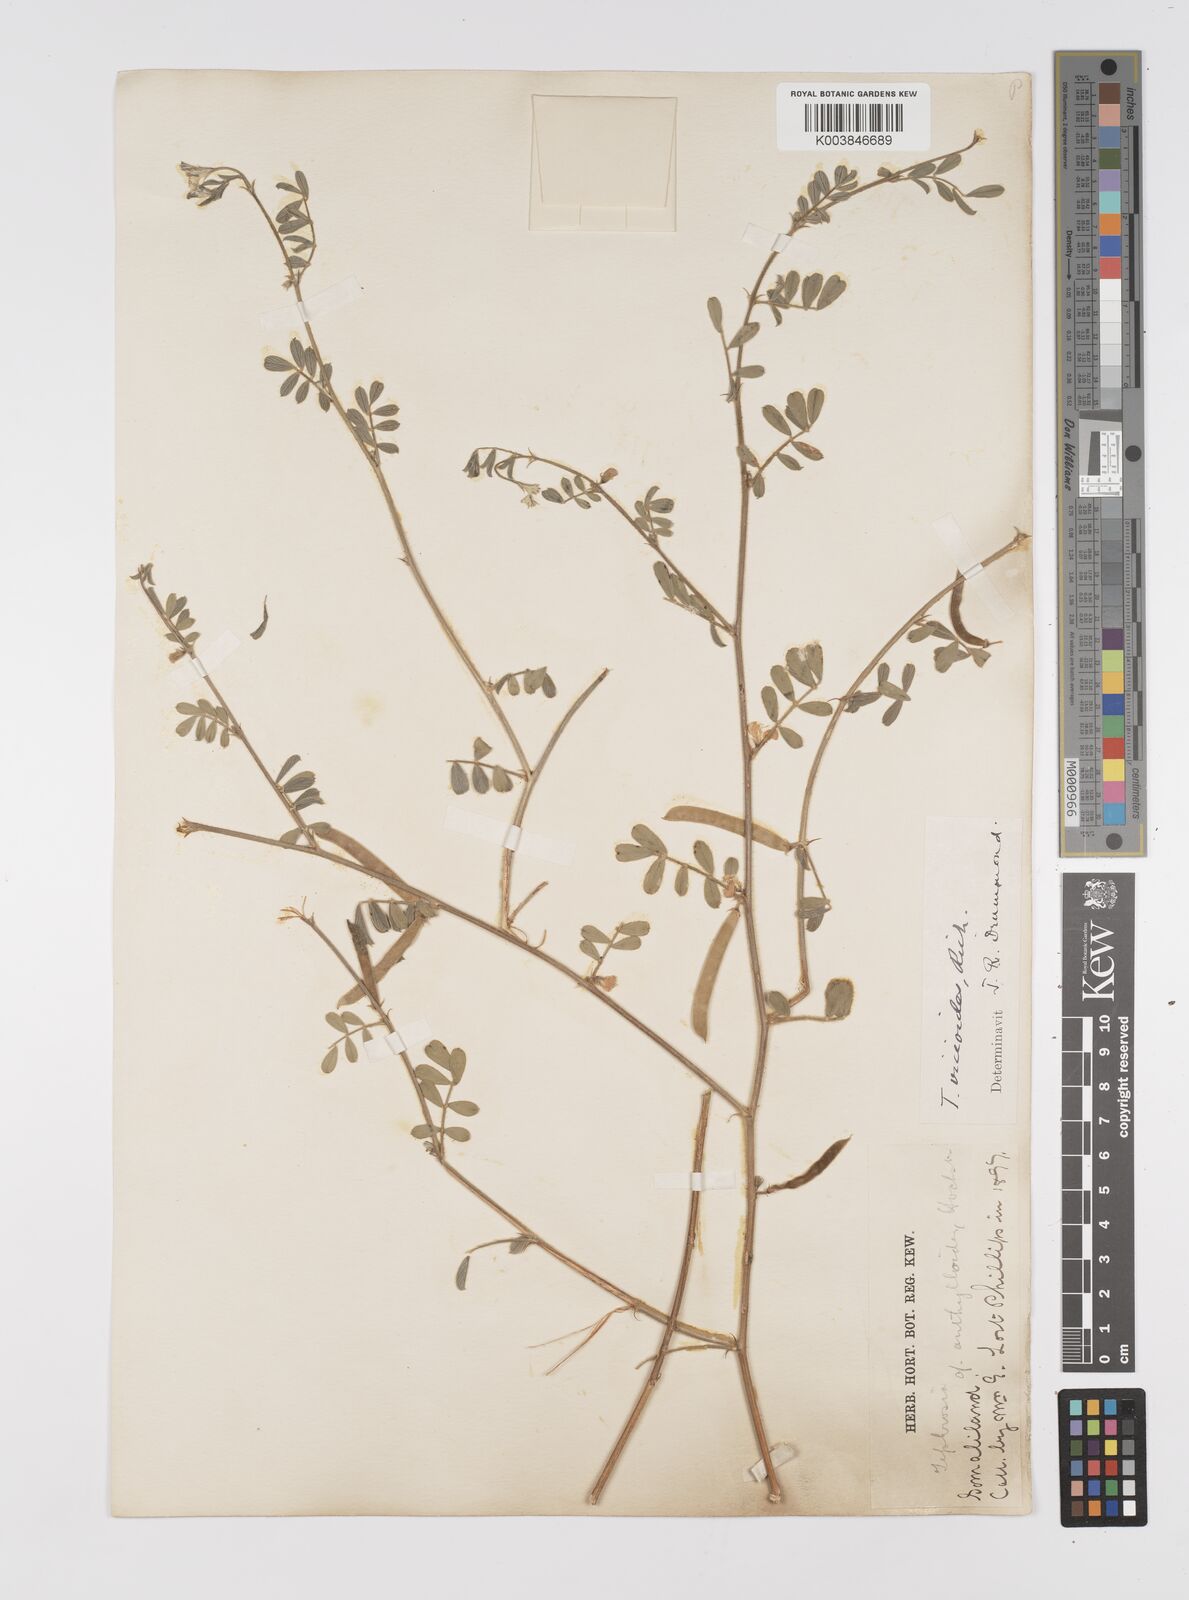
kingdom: Plantae
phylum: Tracheophyta
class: Magnoliopsida
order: Fabales
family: Fabaceae
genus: Tephrosia
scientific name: Tephrosia uniflora
